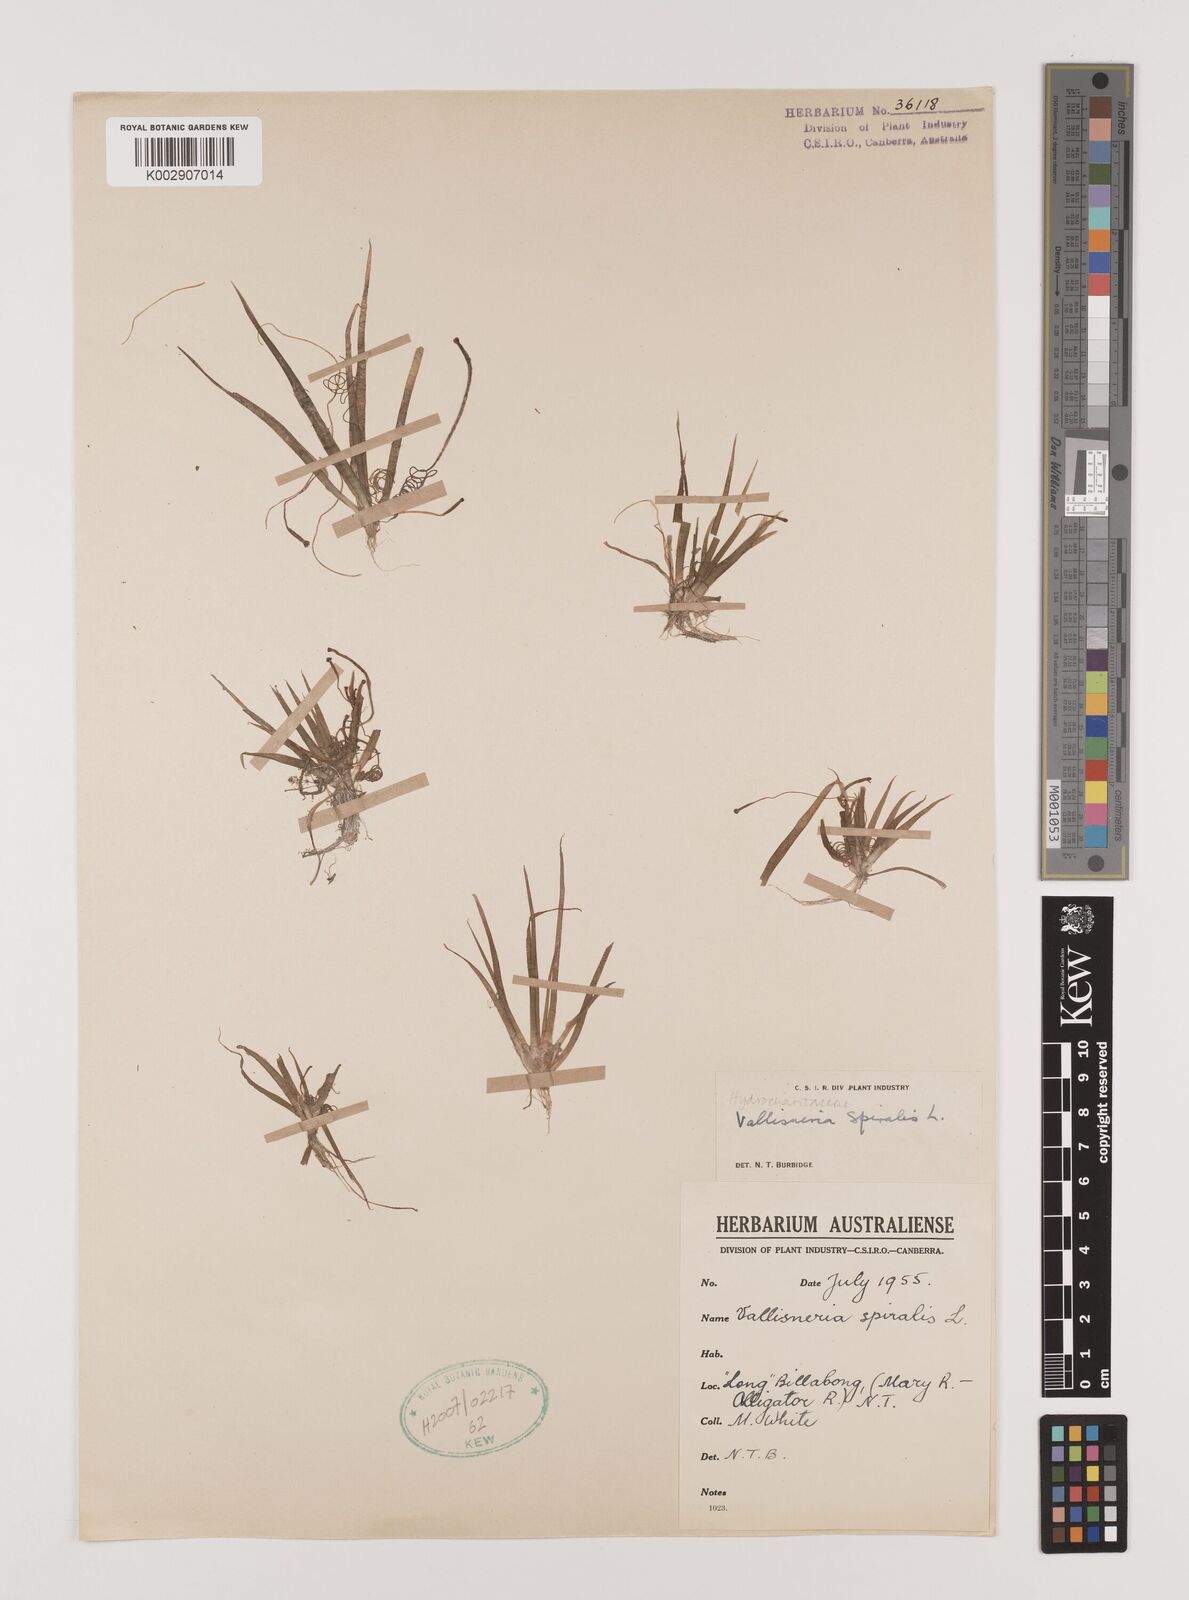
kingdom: Plantae
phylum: Tracheophyta
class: Liliopsida
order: Alismatales
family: Hydrocharitaceae
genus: Vallisneria
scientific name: Vallisneria spiralis
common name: Tapegrass
